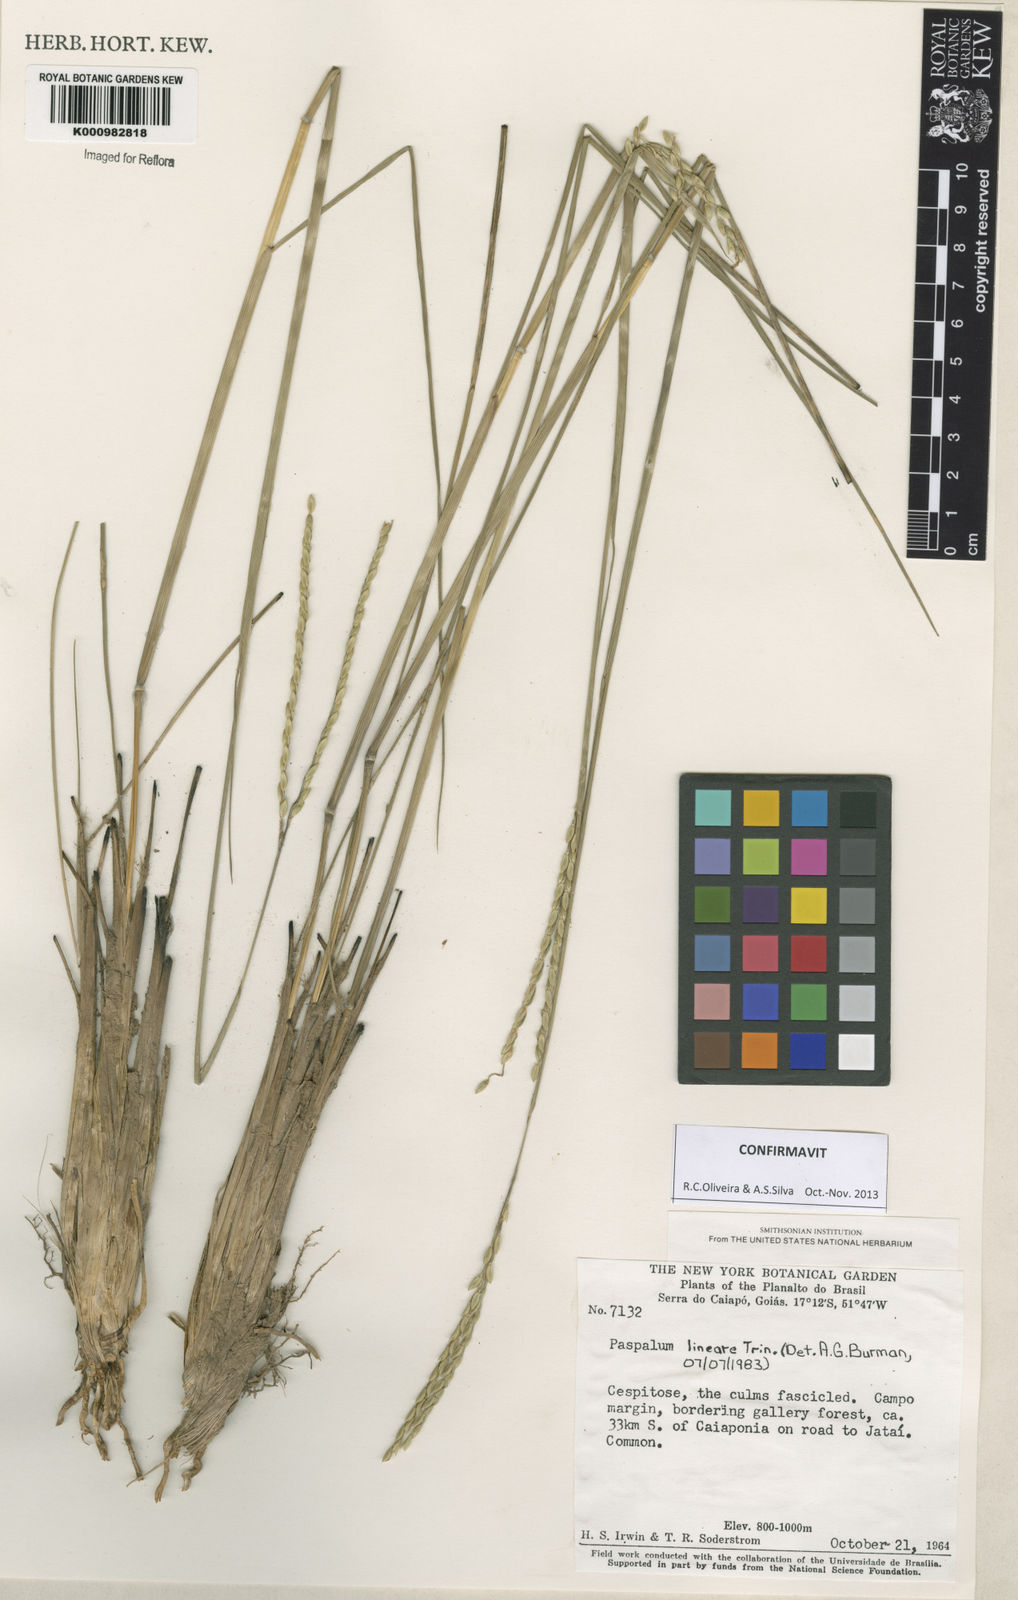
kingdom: Plantae
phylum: Tracheophyta
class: Liliopsida
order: Poales
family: Poaceae
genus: Paspalum
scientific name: Paspalum lineare
